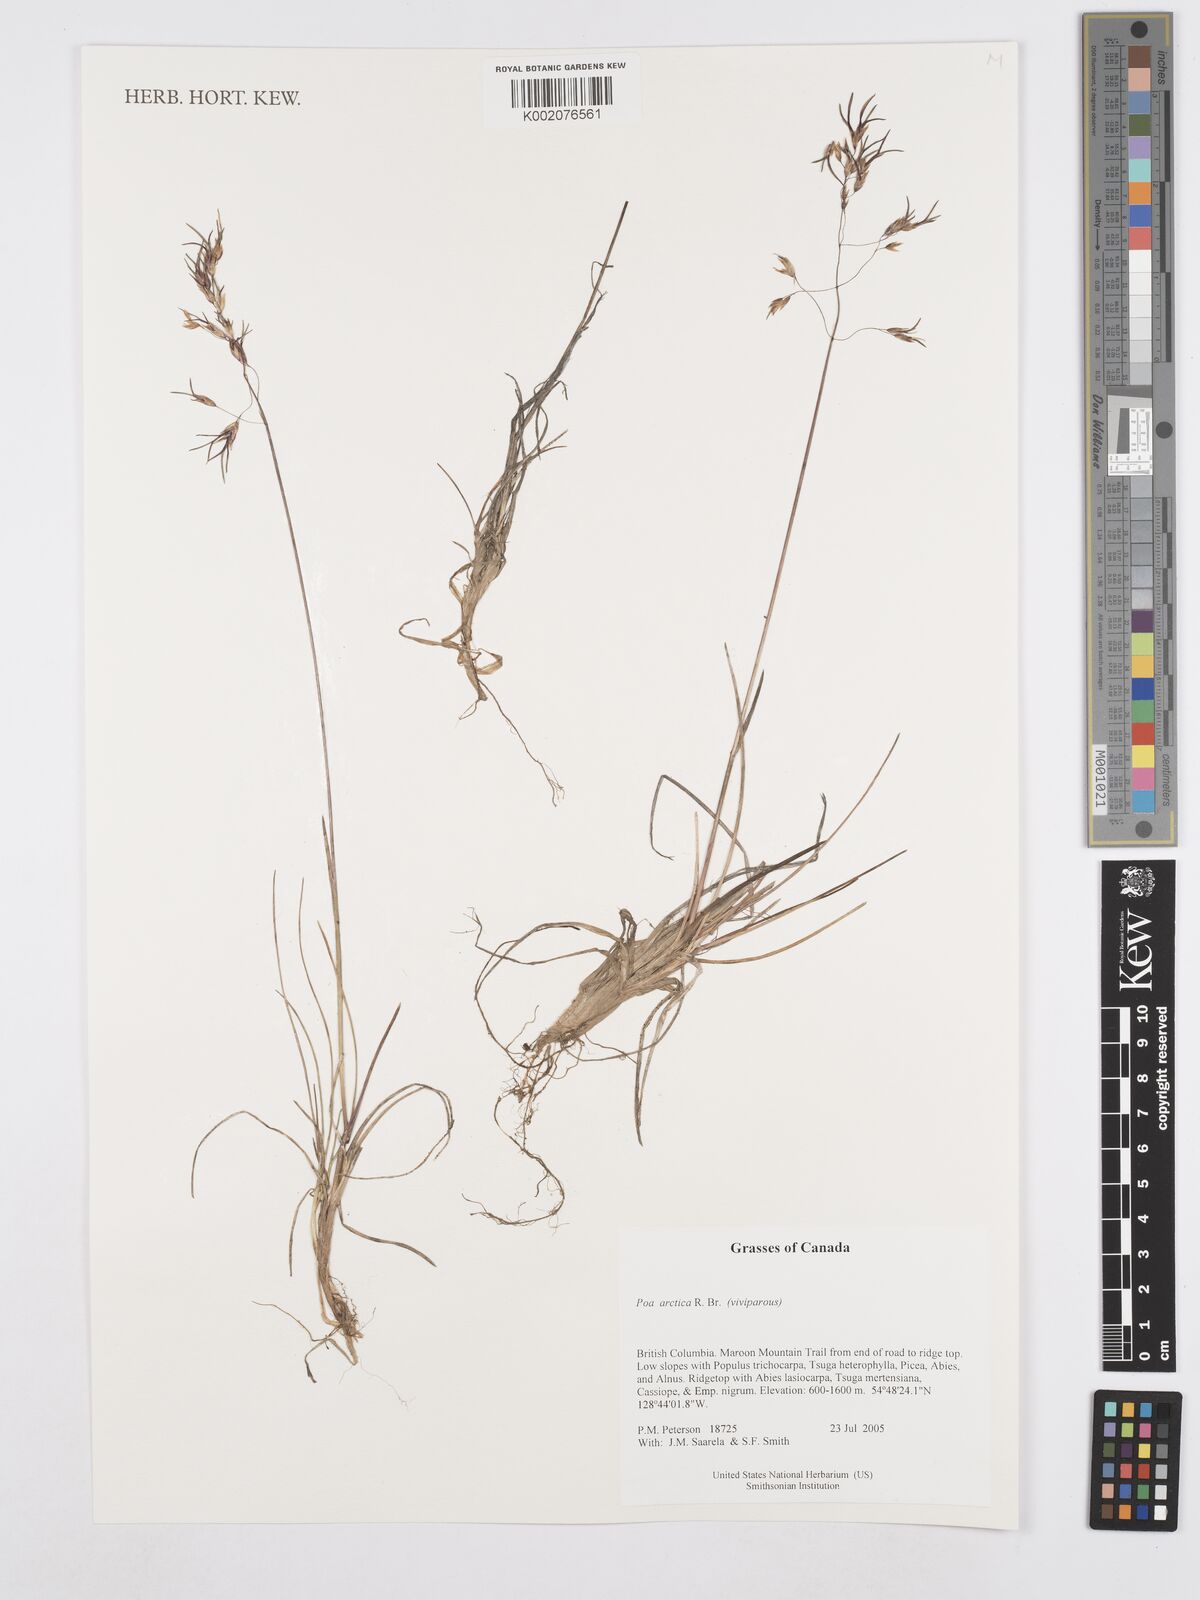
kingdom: Plantae
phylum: Tracheophyta
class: Liliopsida
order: Poales
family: Poaceae
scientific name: Poaceae
